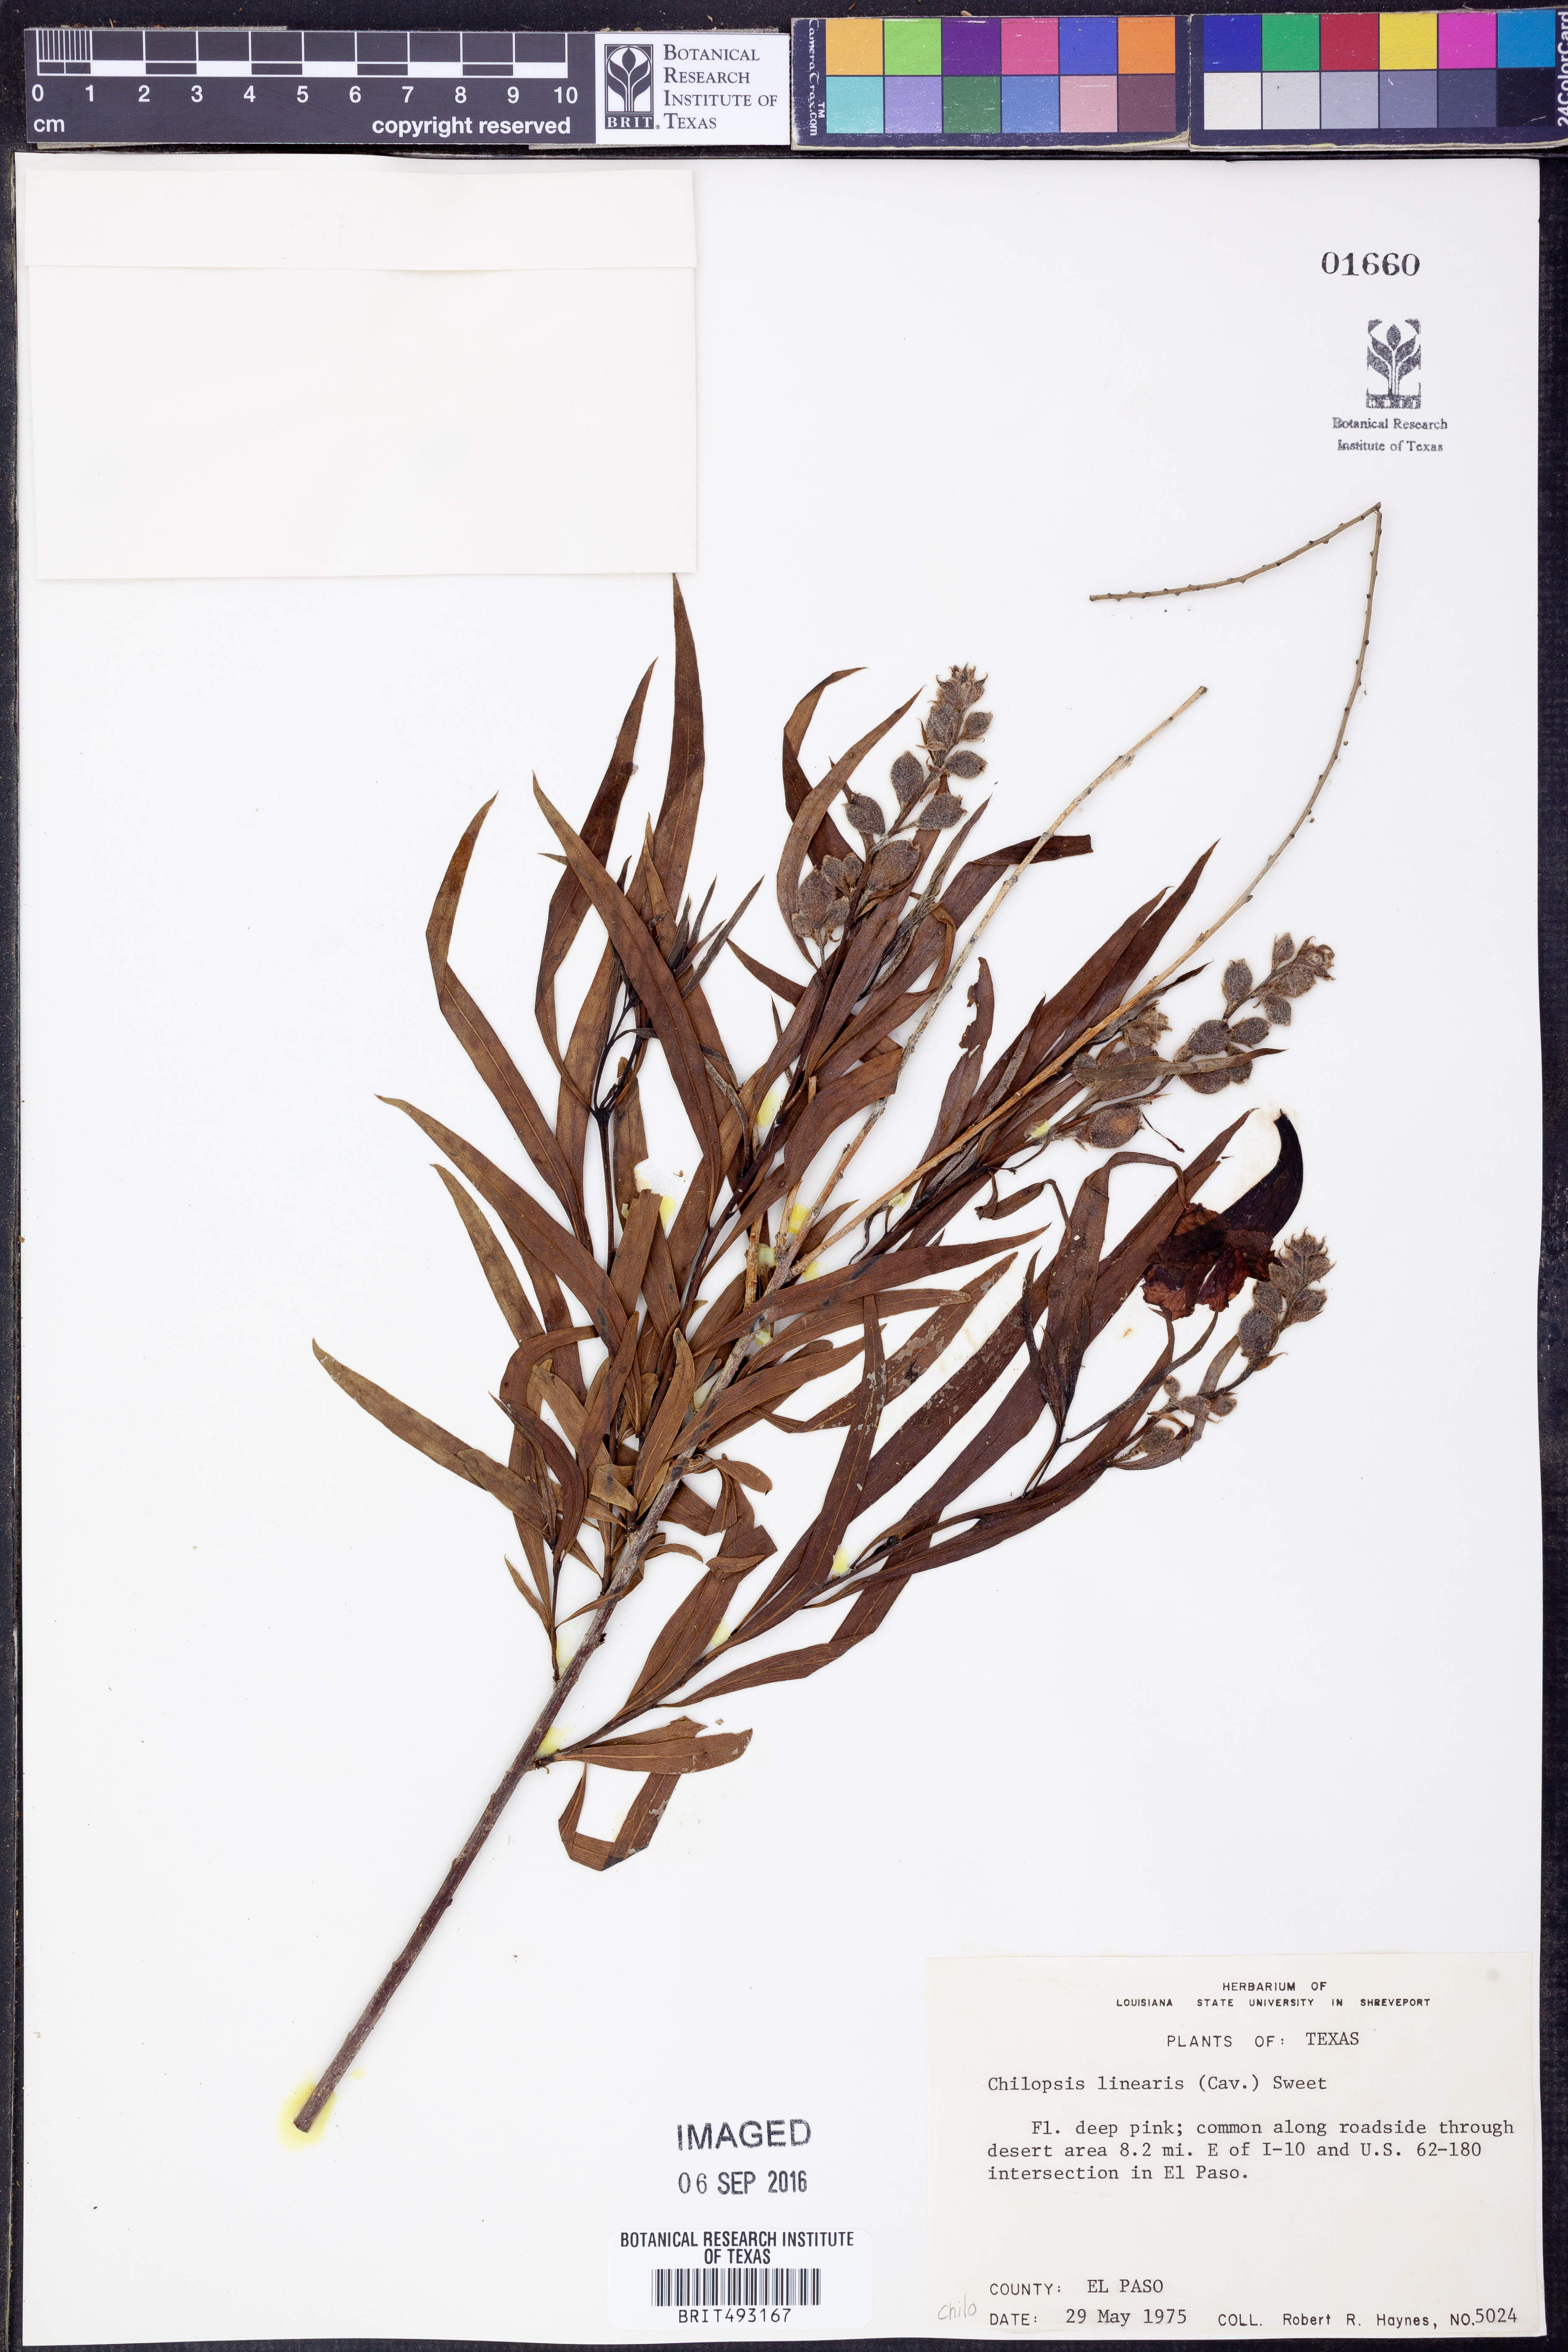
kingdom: Plantae
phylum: Tracheophyta
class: Magnoliopsida
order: Lamiales
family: Bignoniaceae
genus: Chilopsis
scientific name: Chilopsis linearis
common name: Desert-willow
